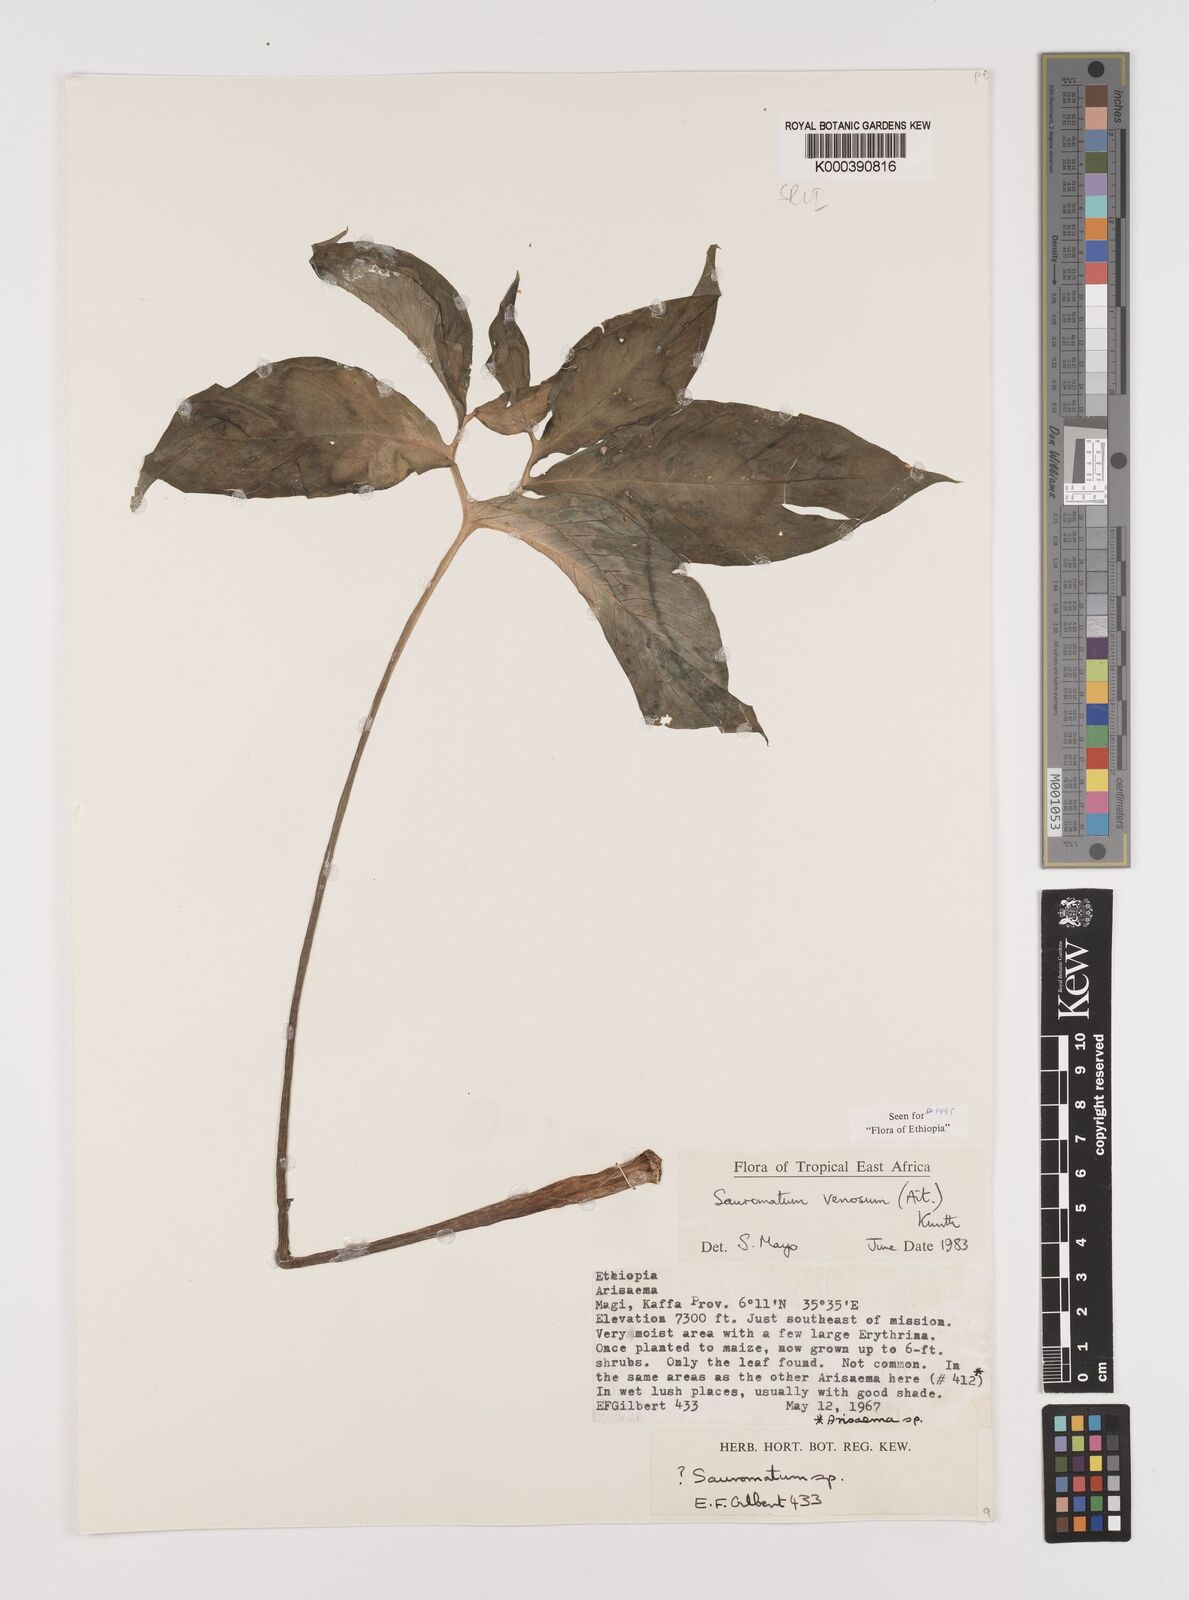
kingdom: Plantae
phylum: Tracheophyta
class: Liliopsida
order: Alismatales
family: Araceae
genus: Sauromatum
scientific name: Sauromatum venosum
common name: Voodoo lily
